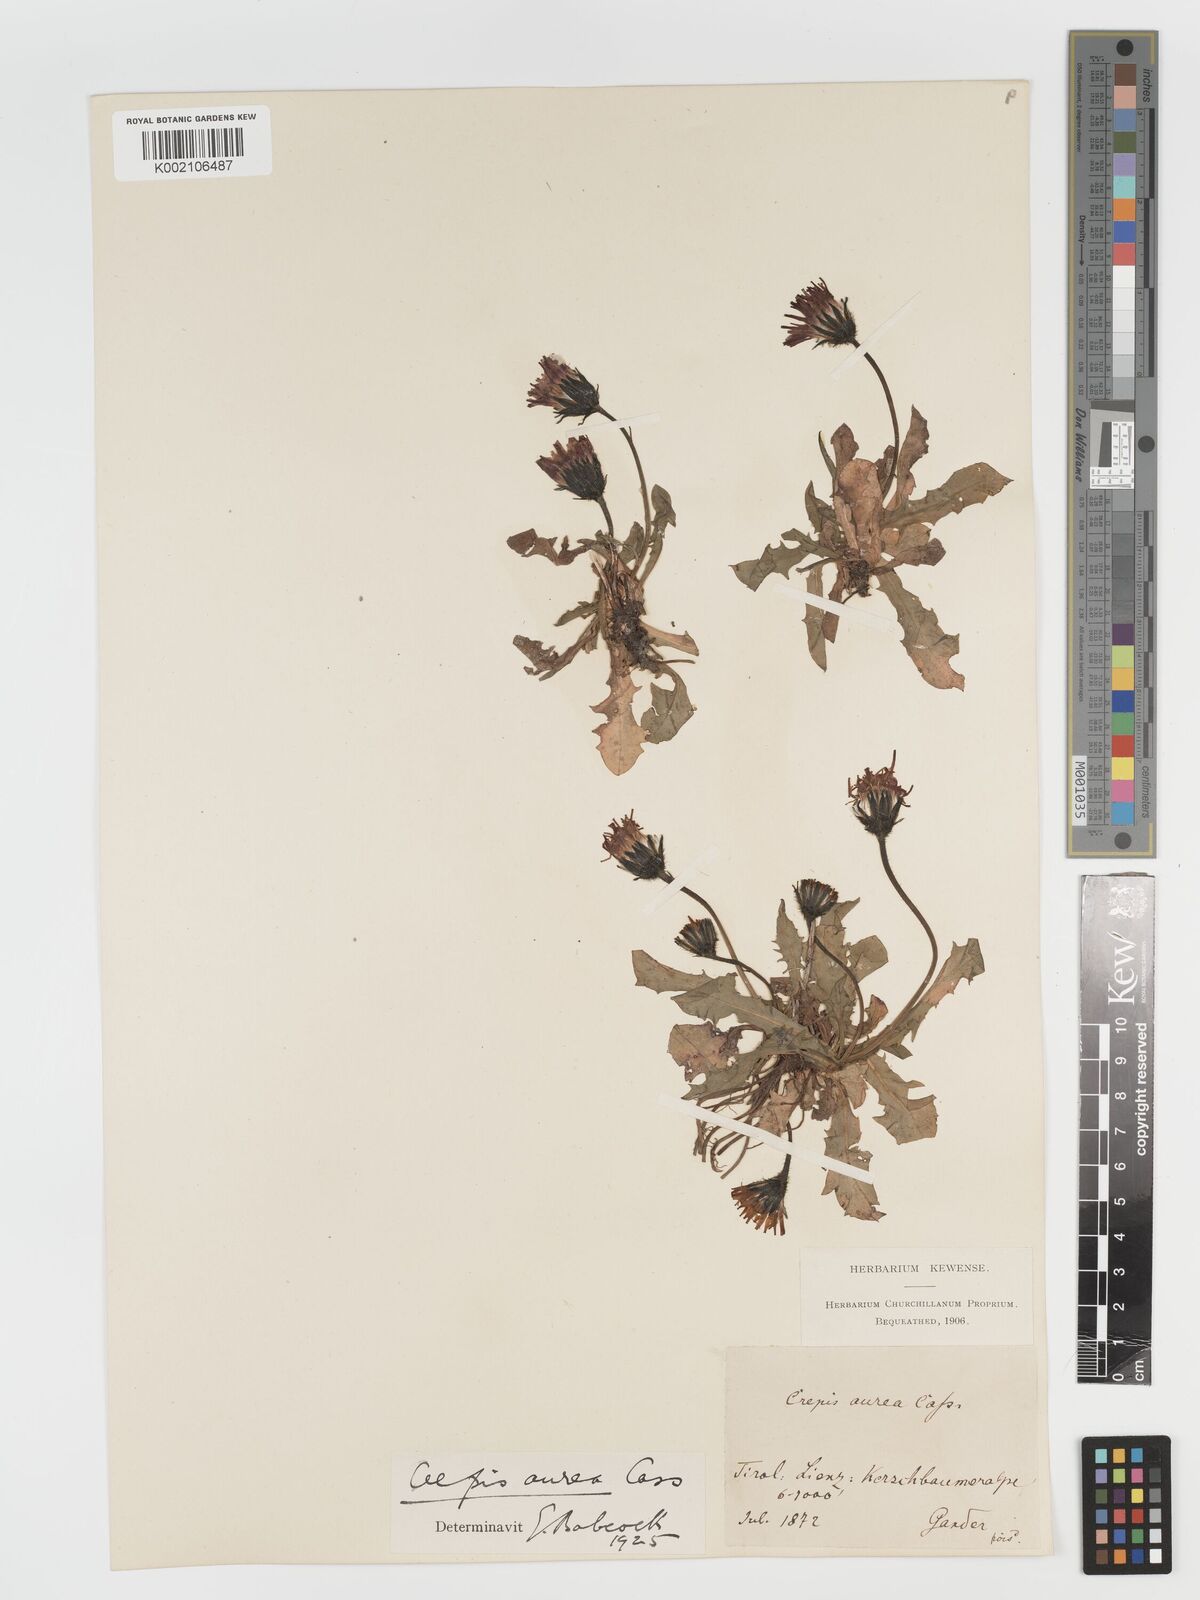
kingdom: Plantae
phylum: Tracheophyta
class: Magnoliopsida
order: Asterales
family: Asteraceae
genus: Crepis
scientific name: Crepis aurea
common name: Golden hawk's-beard
